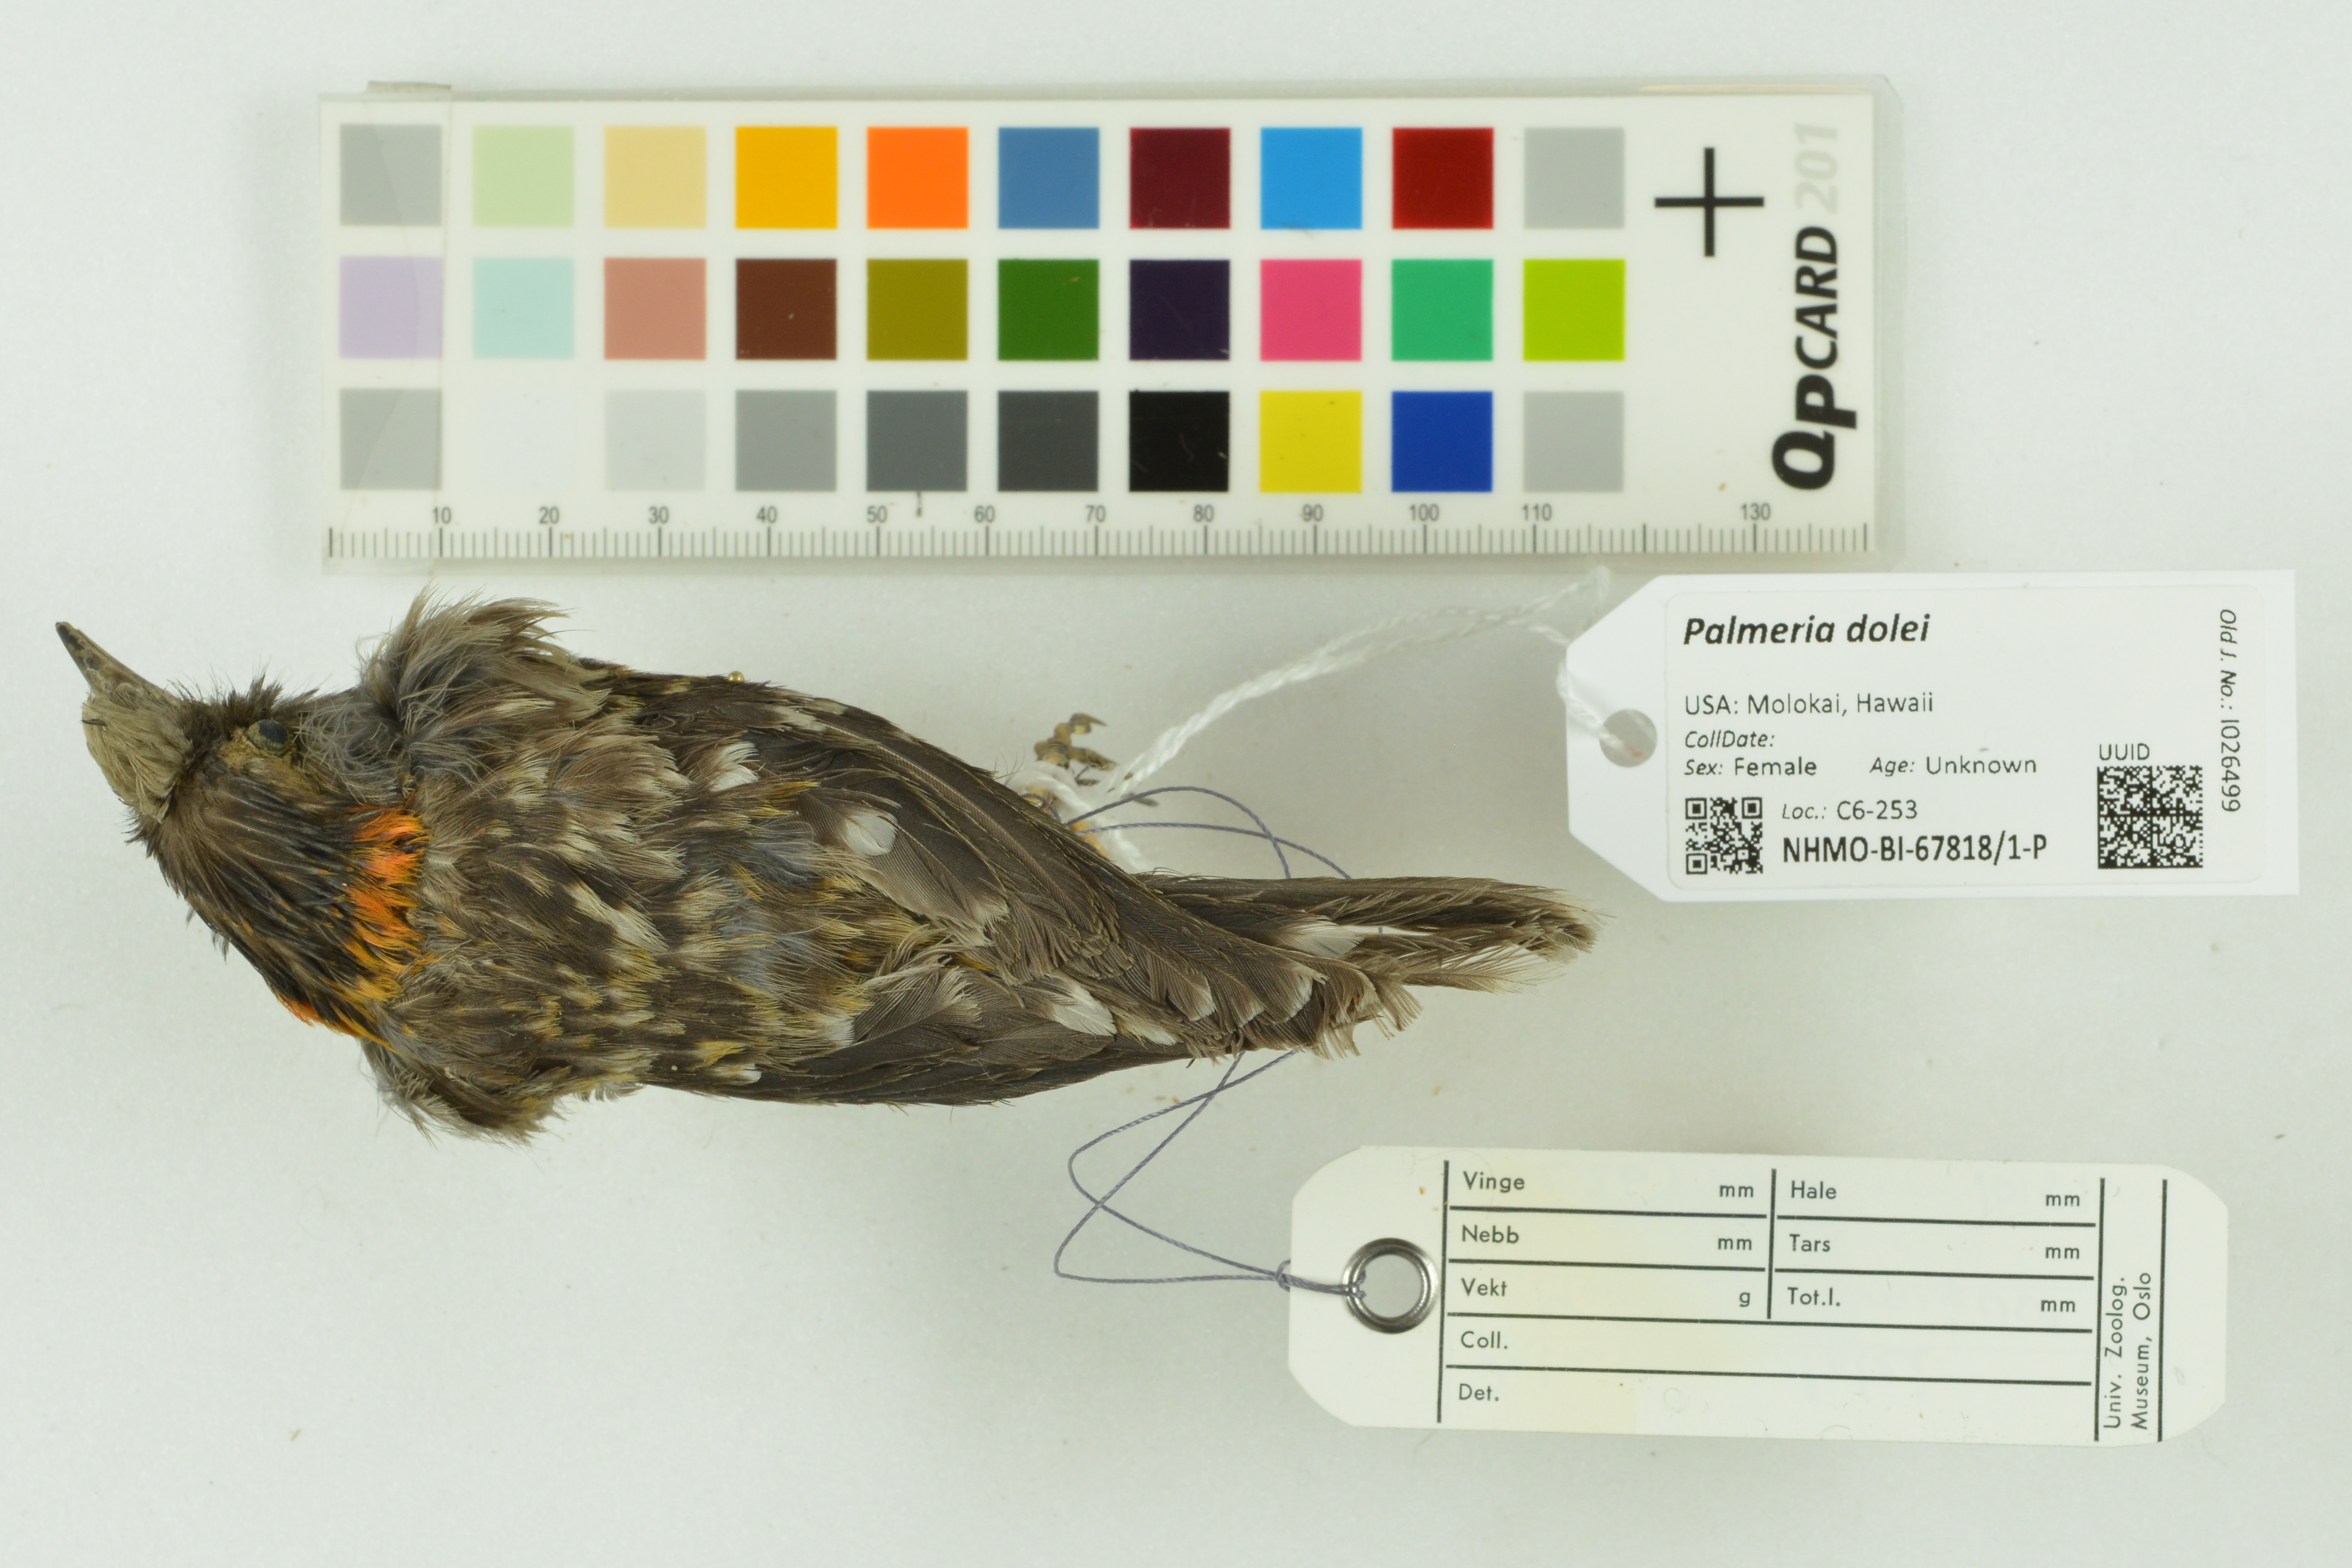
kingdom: Animalia
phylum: Chordata
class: Aves
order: Passeriformes
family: Fringillidae
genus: Palmeria
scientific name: Palmeria dolei
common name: Akohekohe
